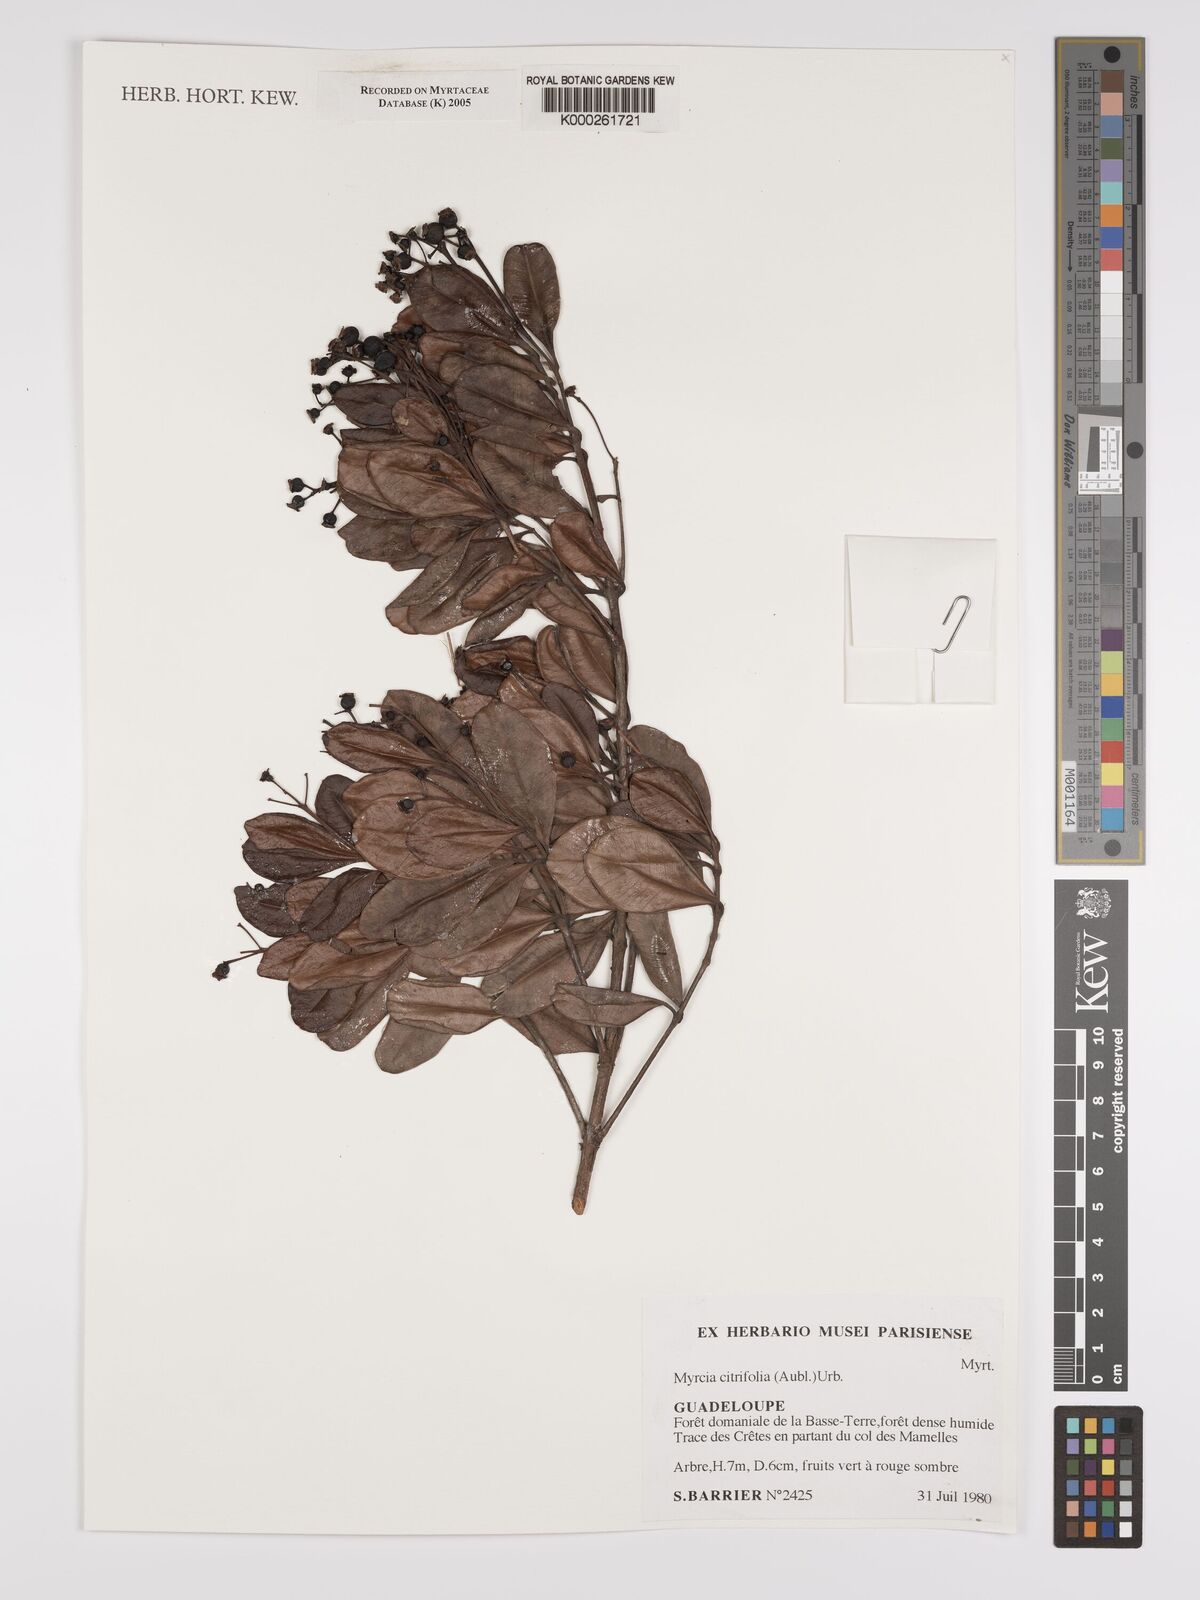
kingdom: Plantae
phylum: Tracheophyta
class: Magnoliopsida
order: Myrtales
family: Myrtaceae
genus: Myrcia
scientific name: Myrcia guianensis
